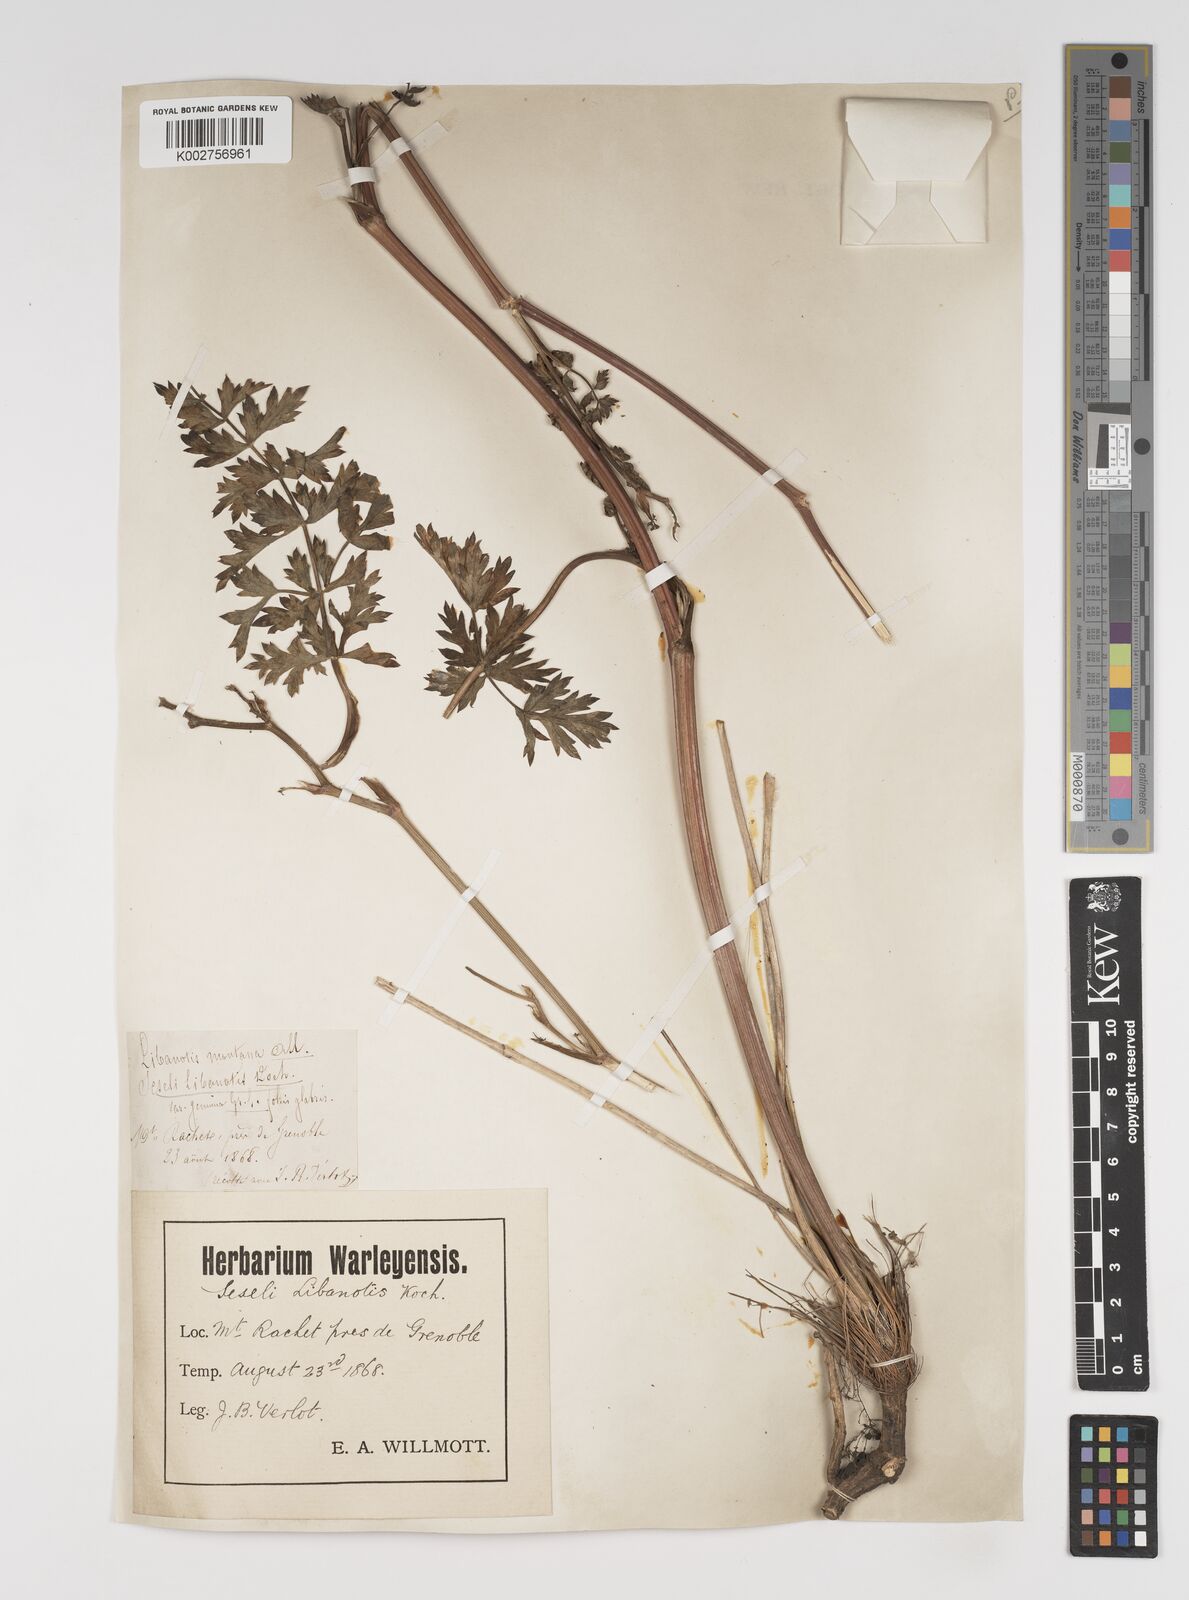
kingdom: Plantae
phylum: Tracheophyta
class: Magnoliopsida
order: Apiales
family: Apiaceae
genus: Seseli
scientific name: Seseli libanotis
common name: Mooncarrot
